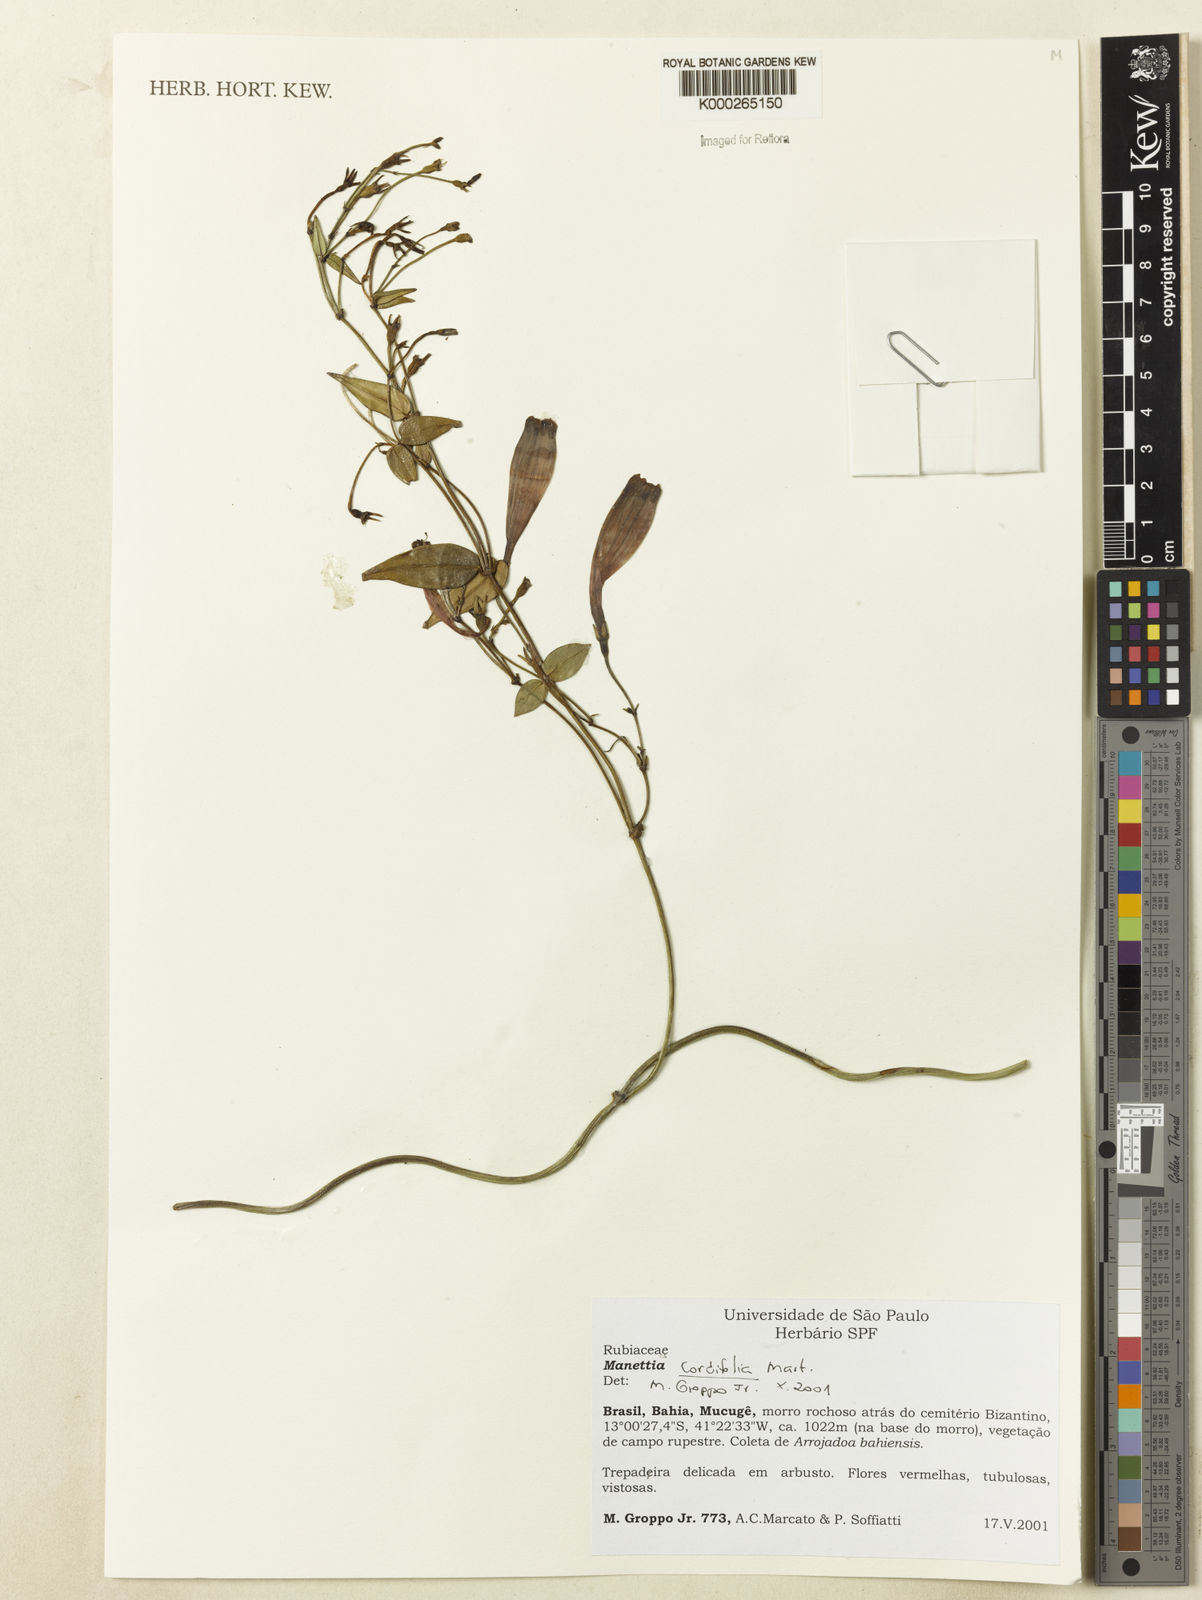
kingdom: Plantae
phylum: Tracheophyta
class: Magnoliopsida
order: Gentianales
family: Rubiaceae
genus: Manettia
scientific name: Manettia cordifolia
